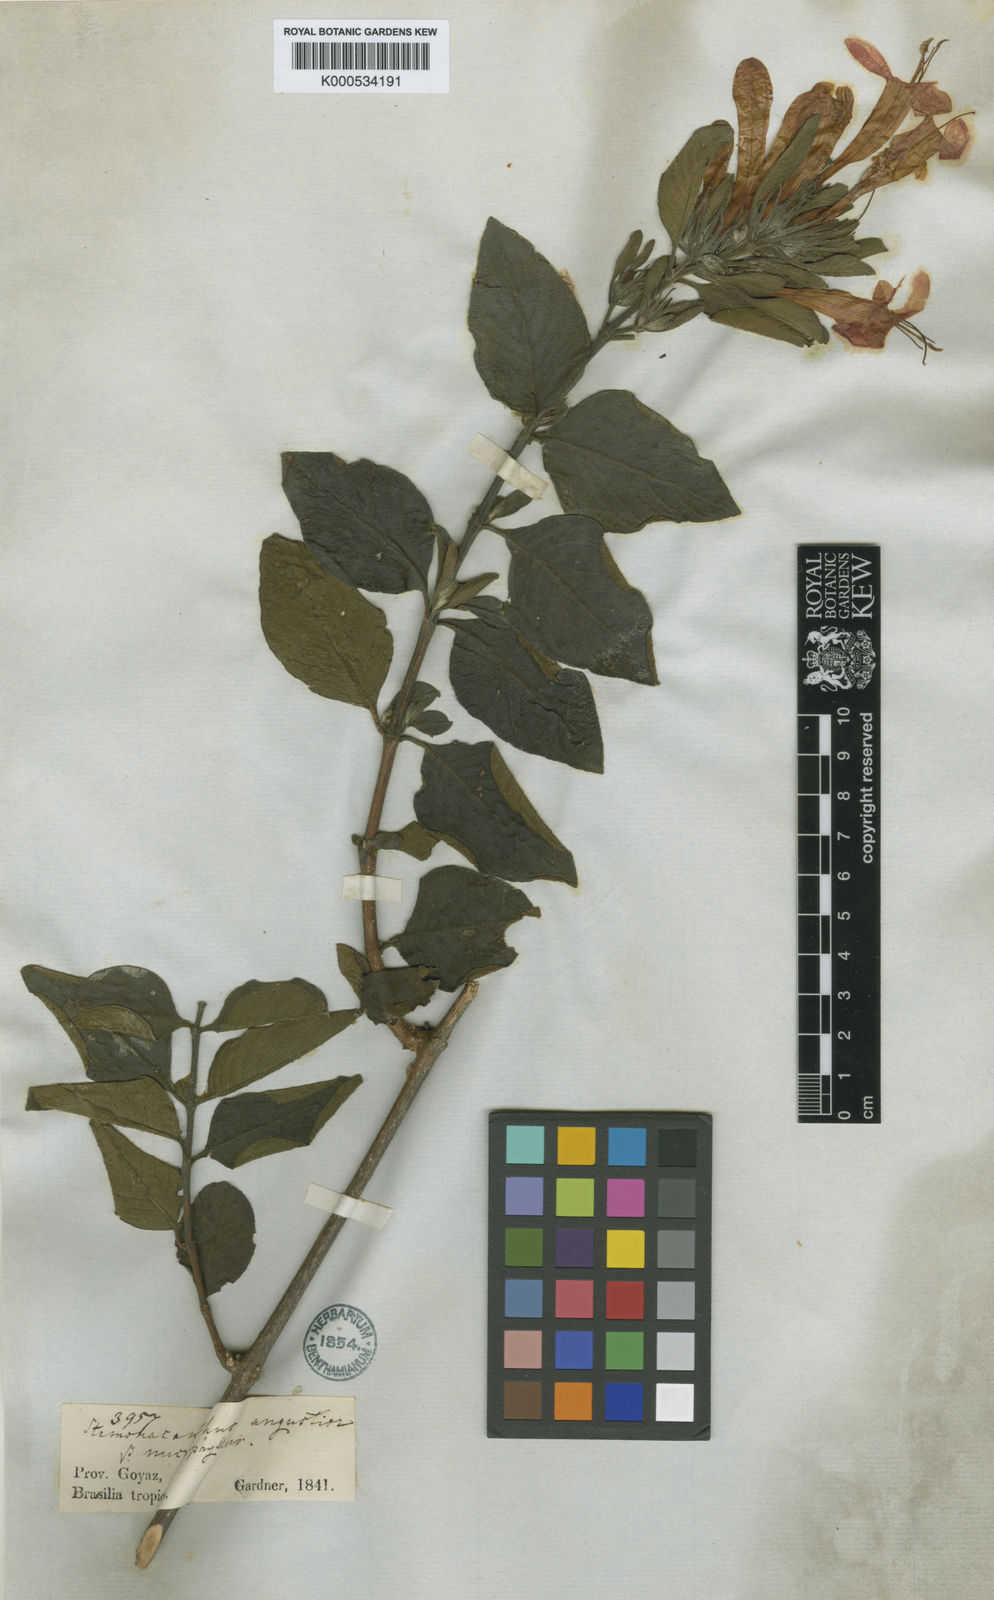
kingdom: Plantae
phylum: Tracheophyta
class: Magnoliopsida
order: Lamiales
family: Acanthaceae
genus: Ruellia
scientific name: Ruellia angustior
